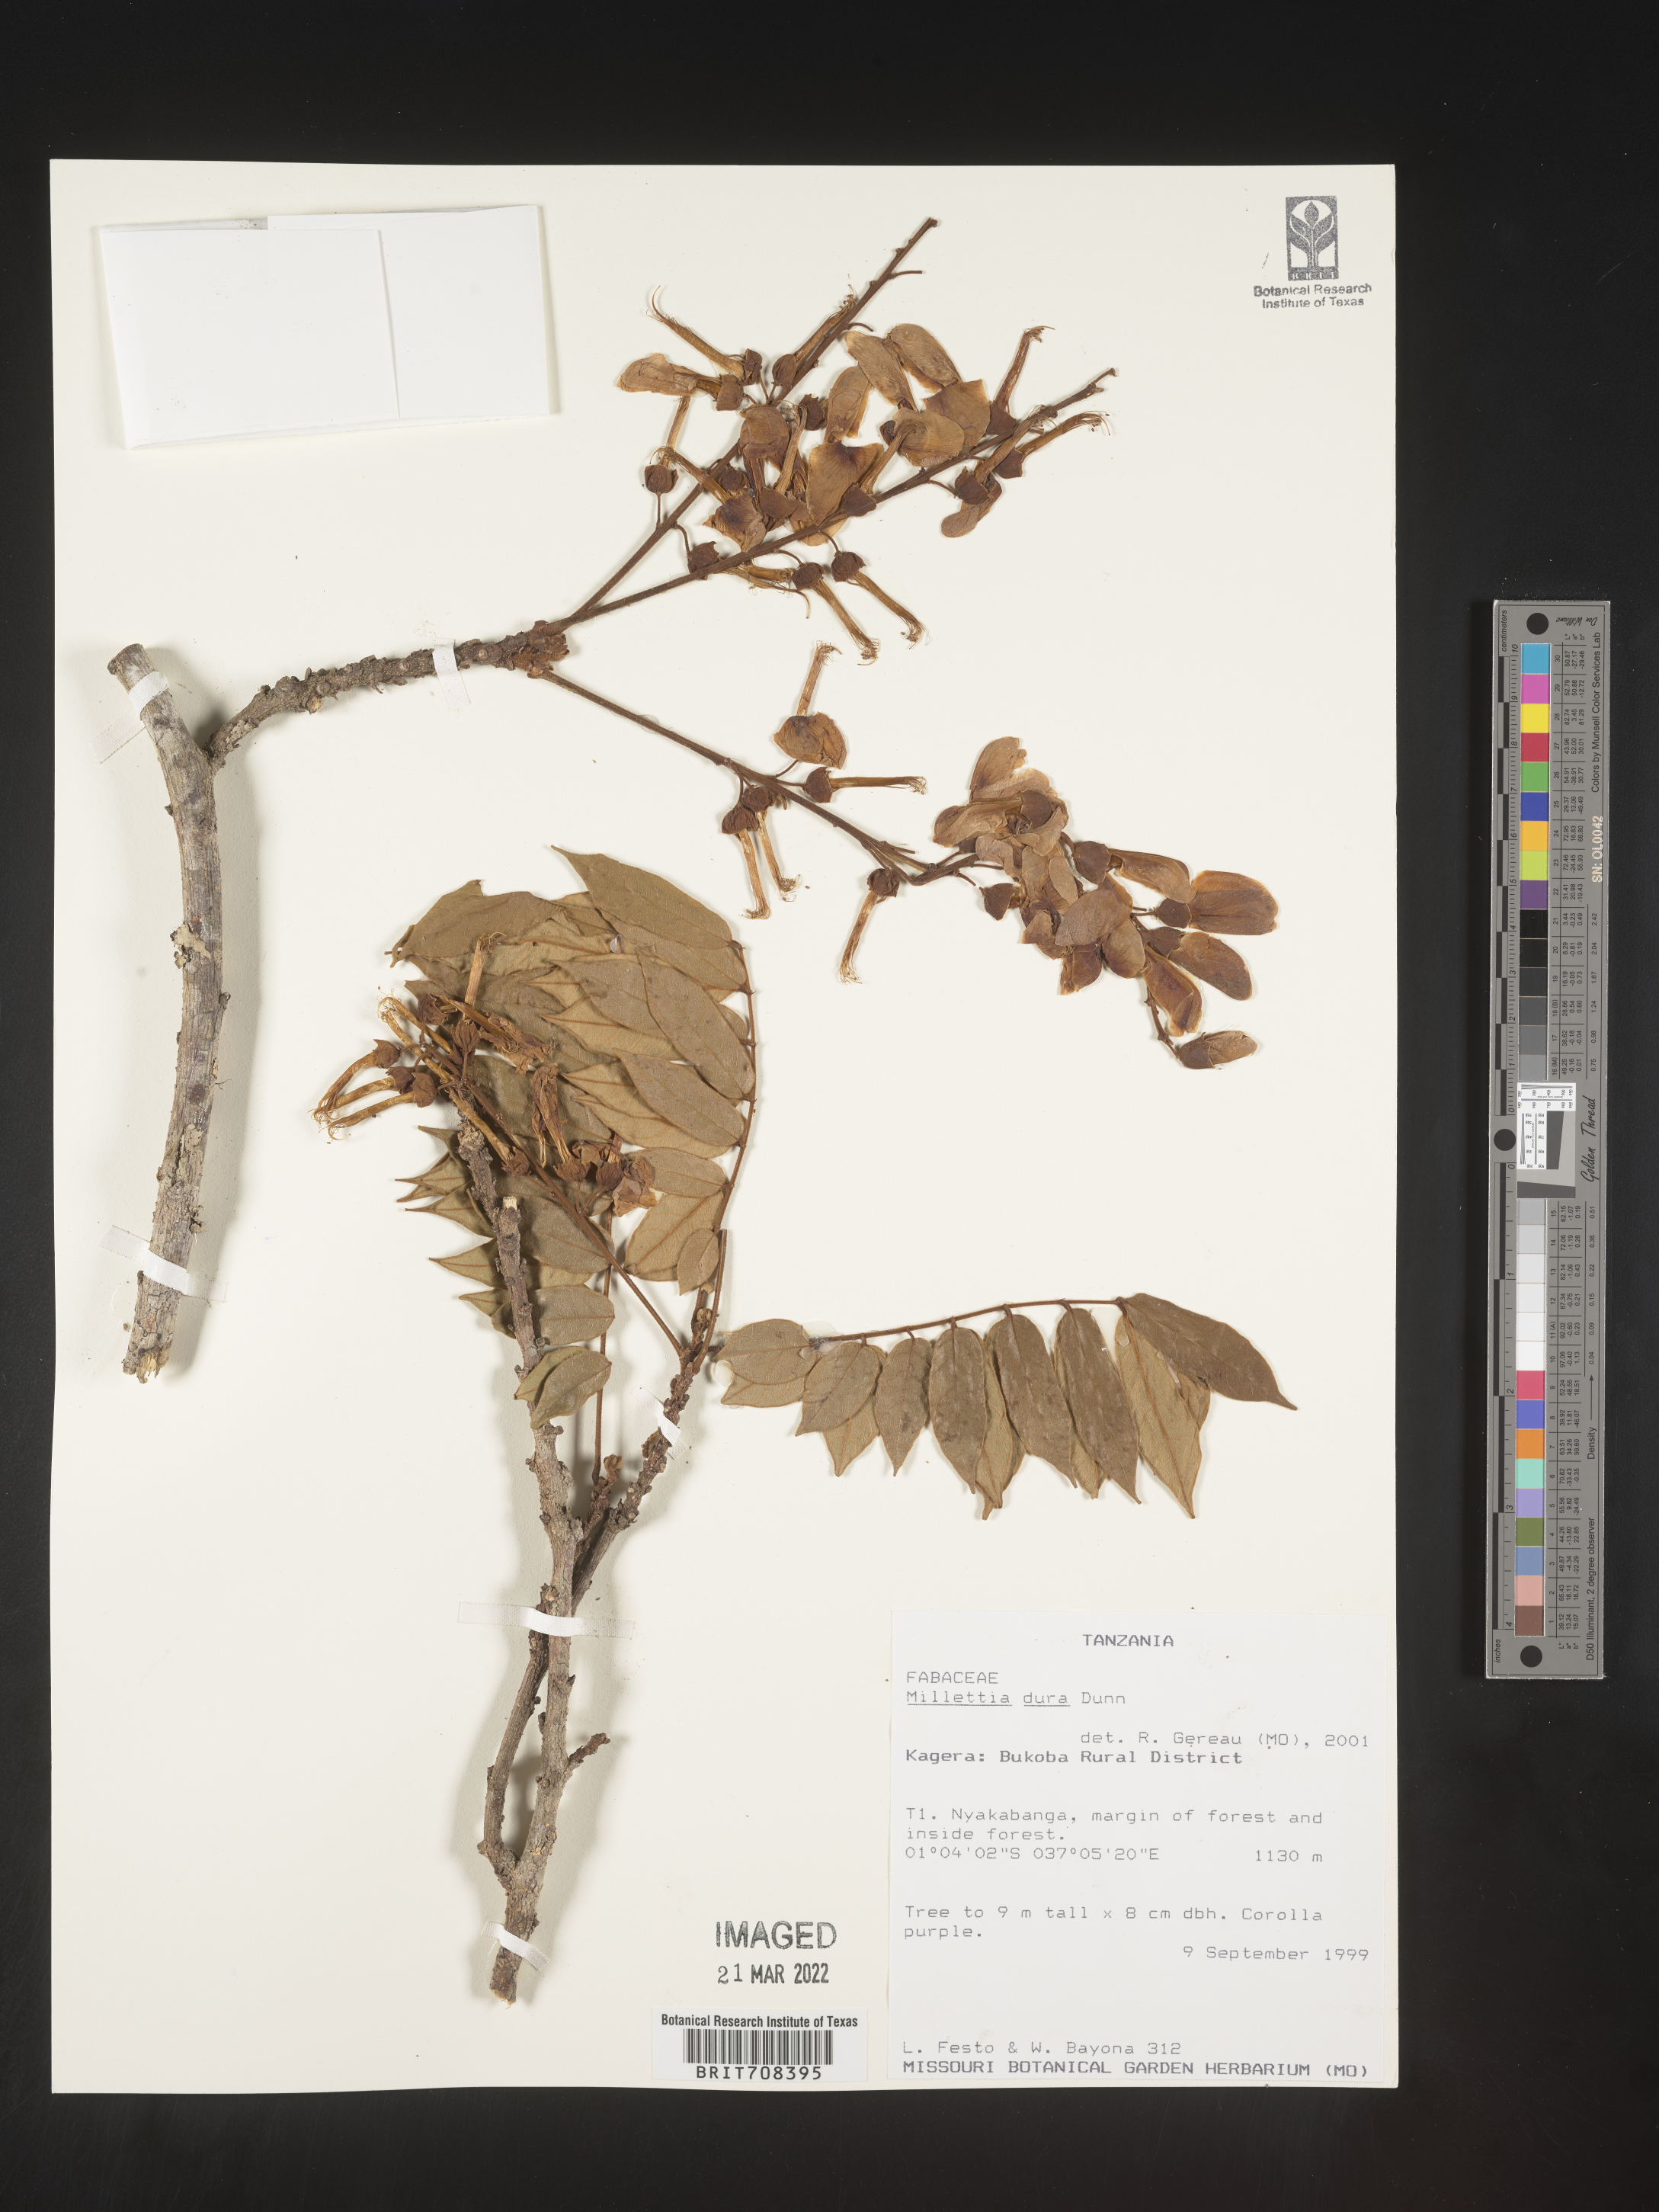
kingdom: Plantae
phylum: Tracheophyta
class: Magnoliopsida
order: Fabales
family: Fabaceae
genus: Millettia
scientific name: Millettia
